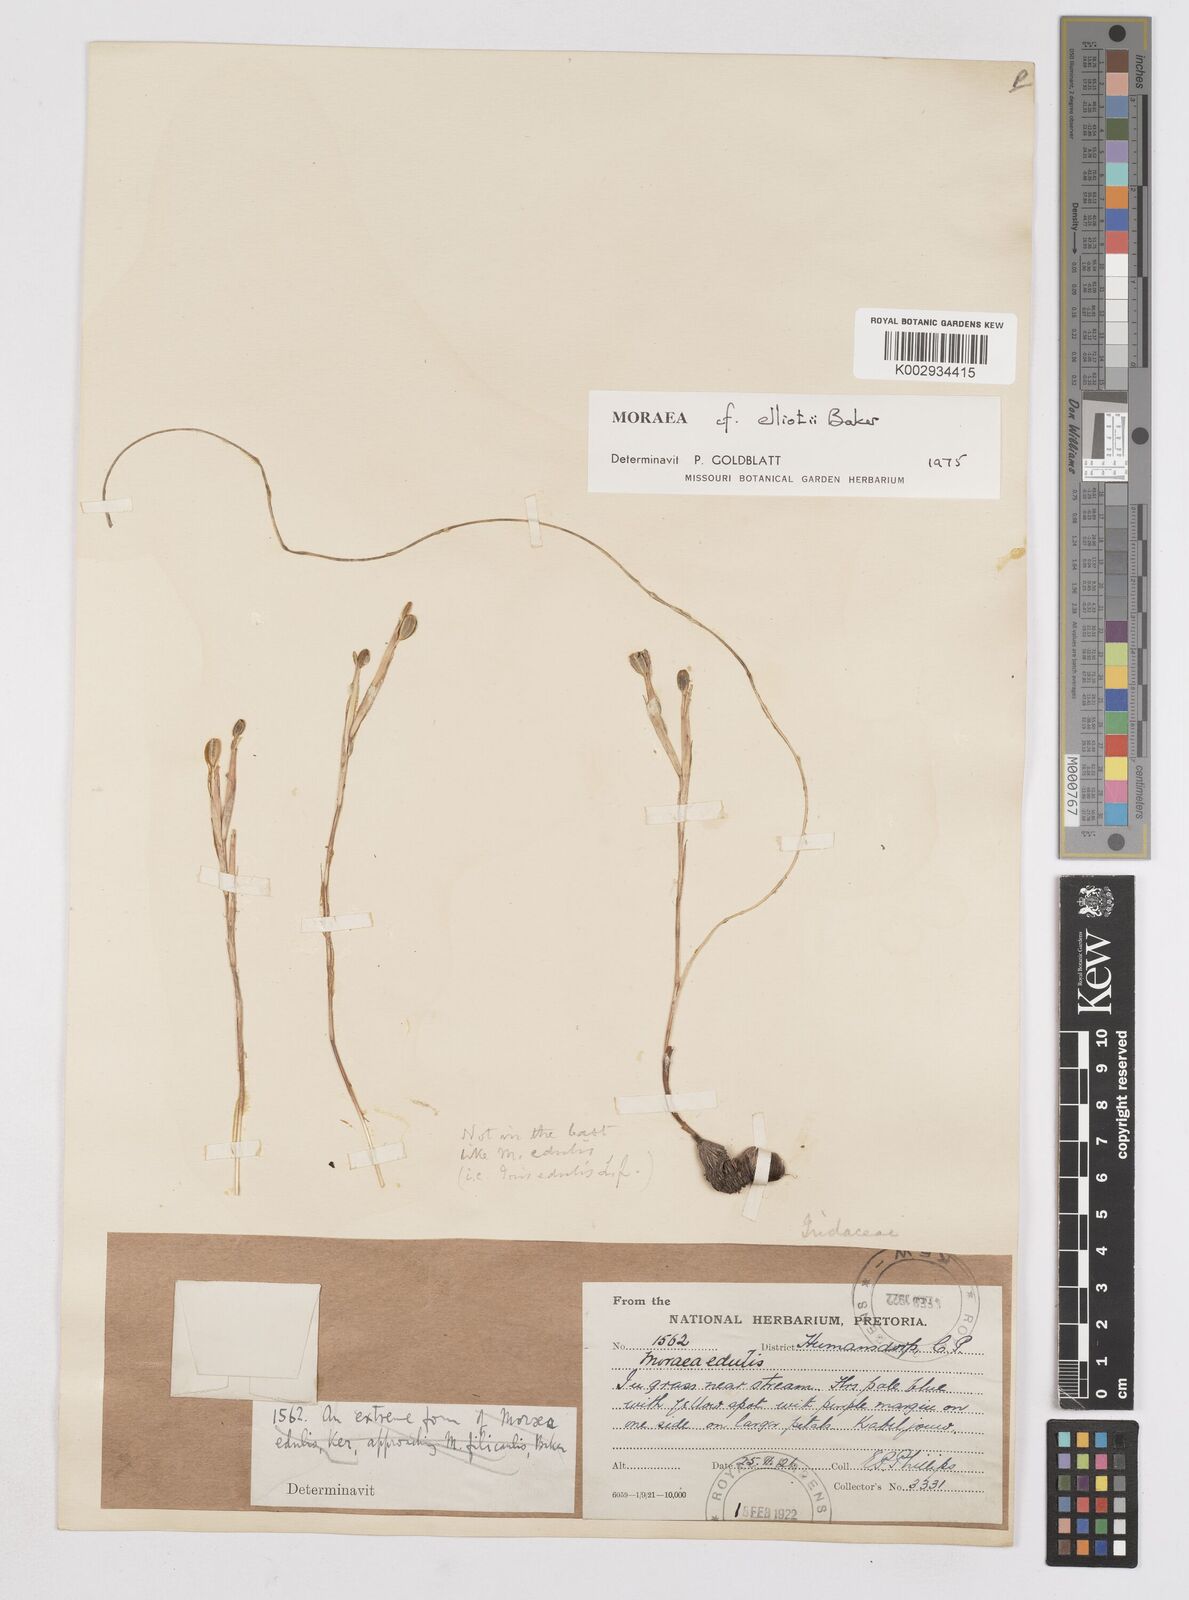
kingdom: Plantae
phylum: Tracheophyta
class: Liliopsida
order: Asparagales
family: Iridaceae
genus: Moraea
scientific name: Moraea elliotii
